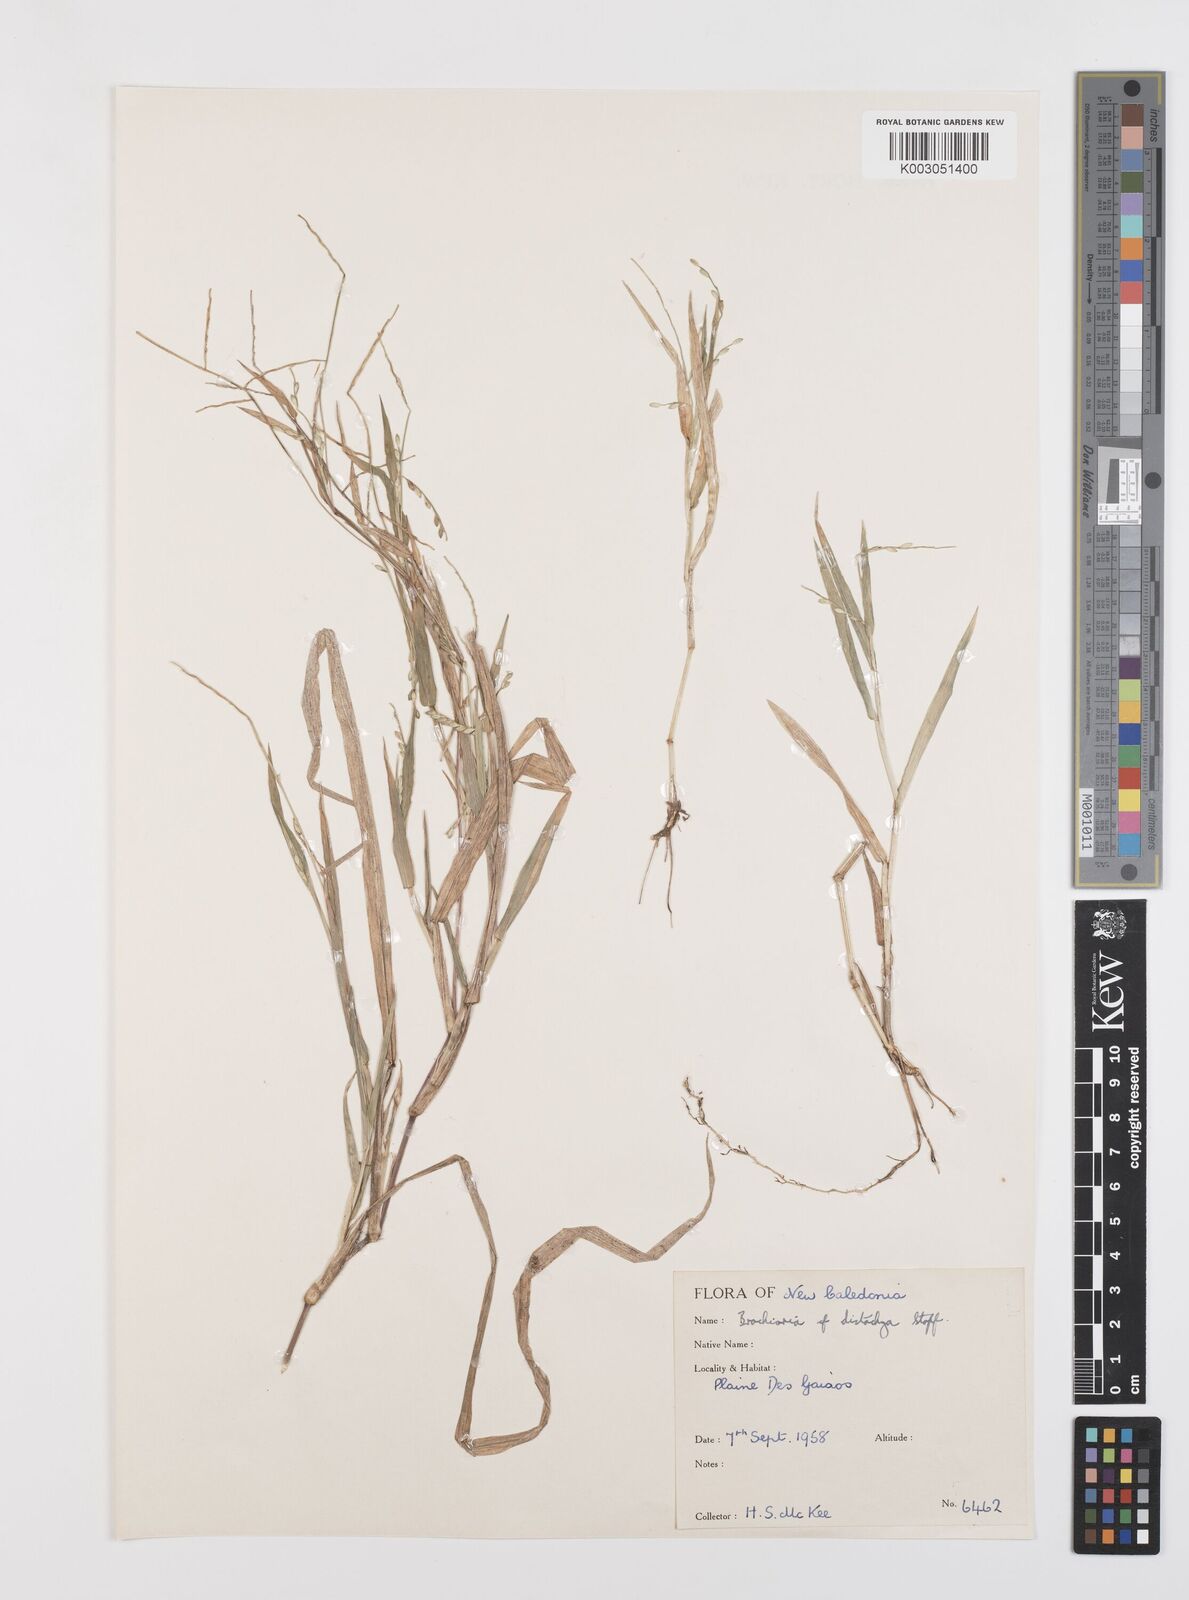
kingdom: Plantae
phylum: Tracheophyta
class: Liliopsida
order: Poales
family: Poaceae
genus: Urochloa
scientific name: Urochloa subquadripara
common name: Armgrass millet
